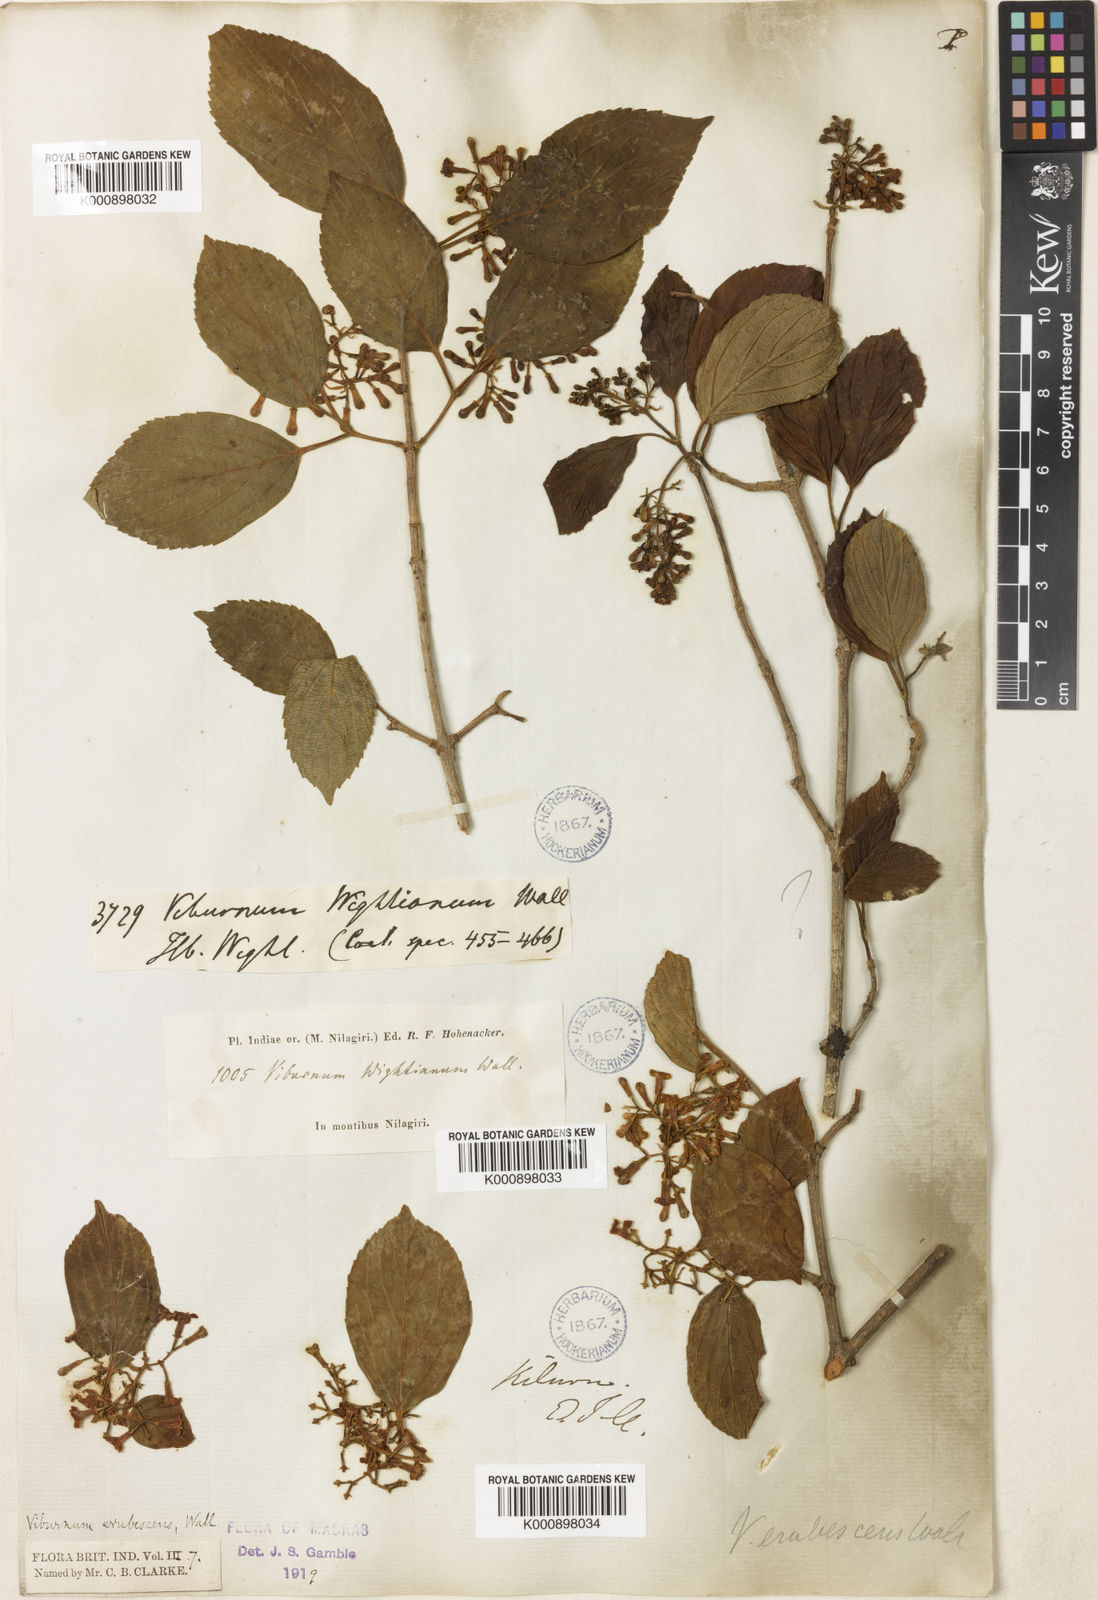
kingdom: Plantae
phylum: Tracheophyta
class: Magnoliopsida
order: Dipsacales
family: Viburnaceae
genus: Viburnum
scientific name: Viburnum
